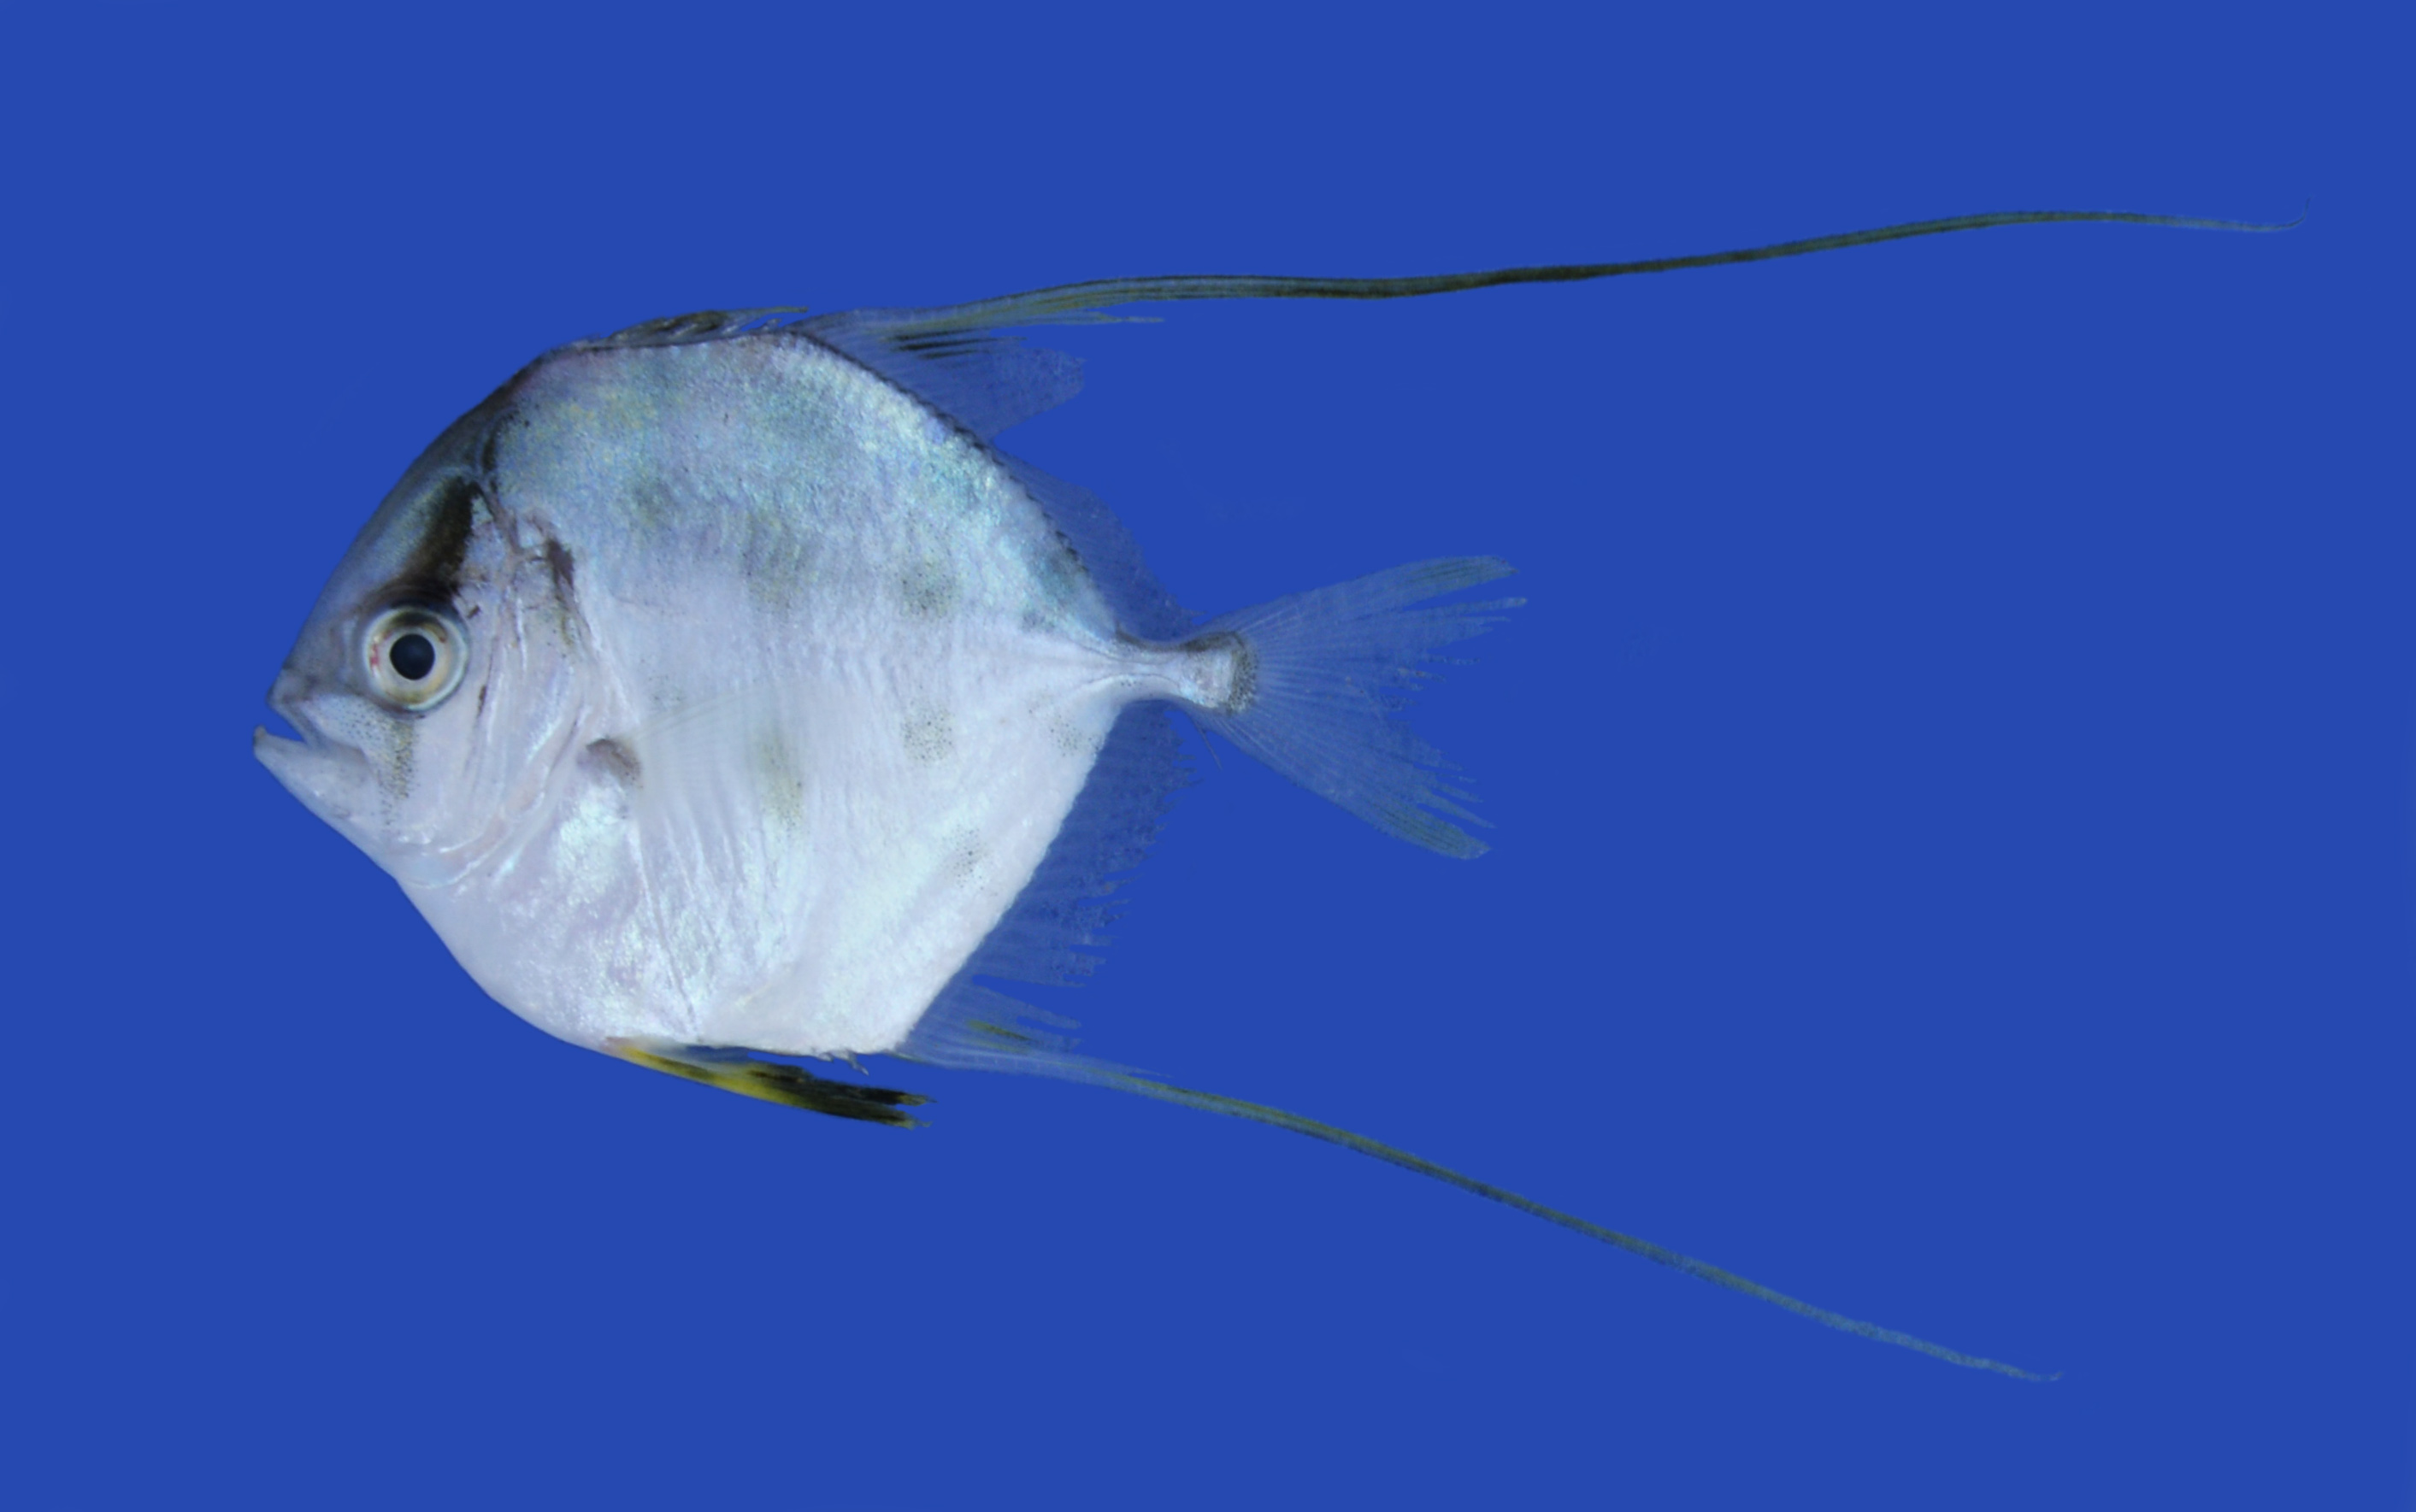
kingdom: Animalia
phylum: Chordata
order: Perciformes
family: Carangidae
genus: Alectis
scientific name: Alectis ciliaris
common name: African pompano
